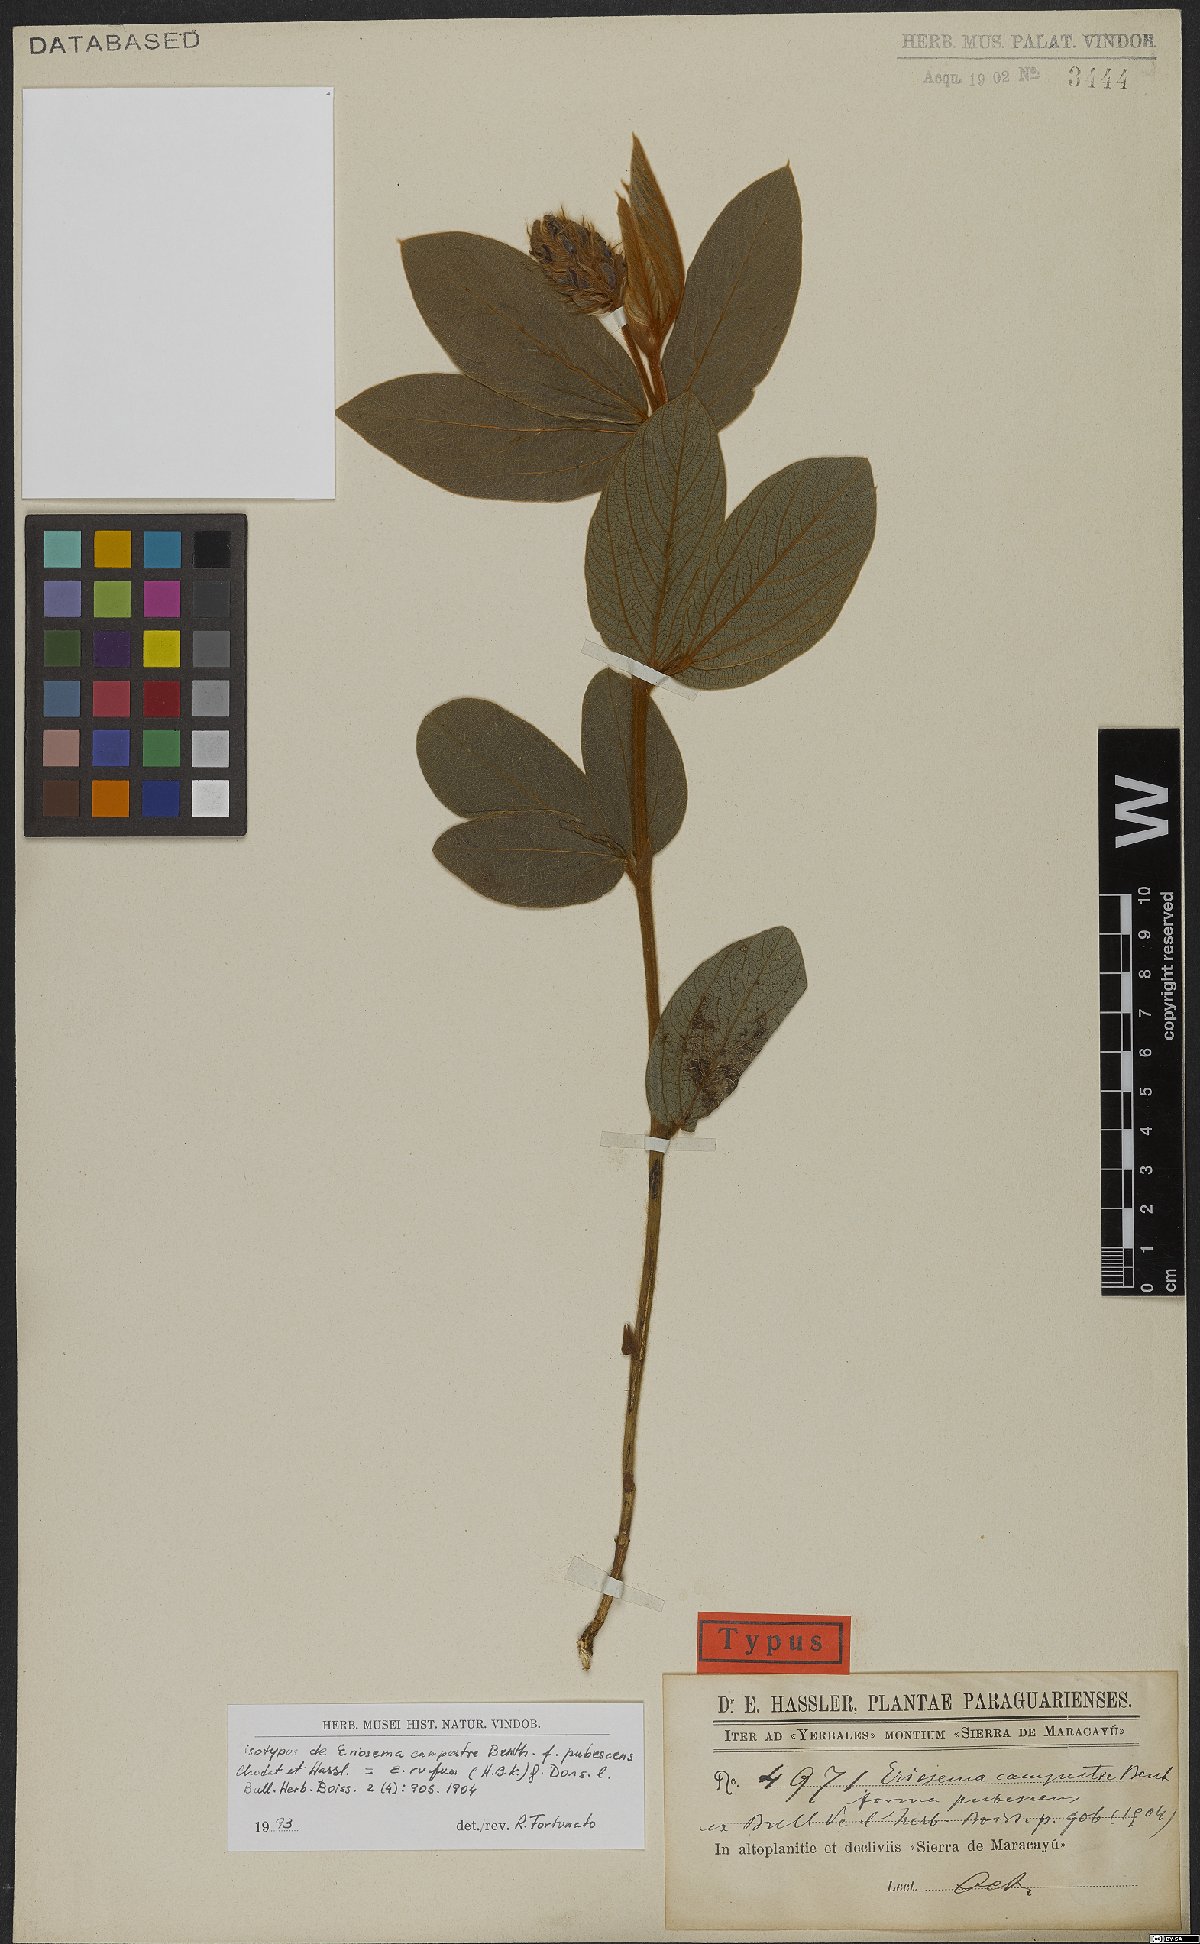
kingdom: Plantae
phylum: Tracheophyta
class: Magnoliopsida
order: Fabales
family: Fabaceae
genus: Eriosema
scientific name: Eriosema rufum
